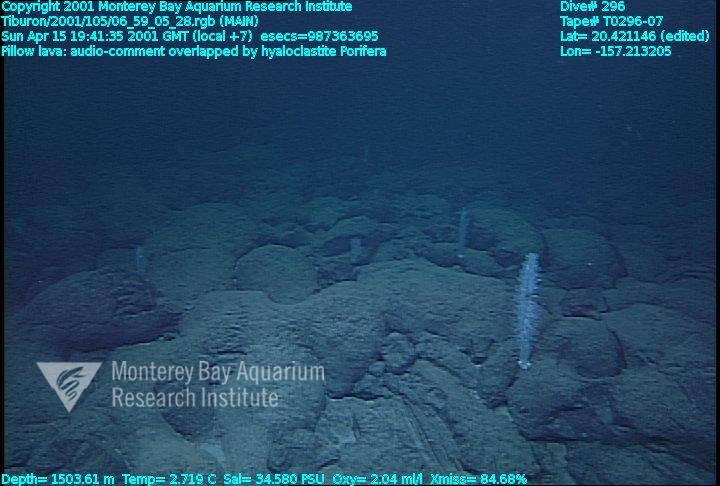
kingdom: Animalia
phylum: Porifera
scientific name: Porifera
